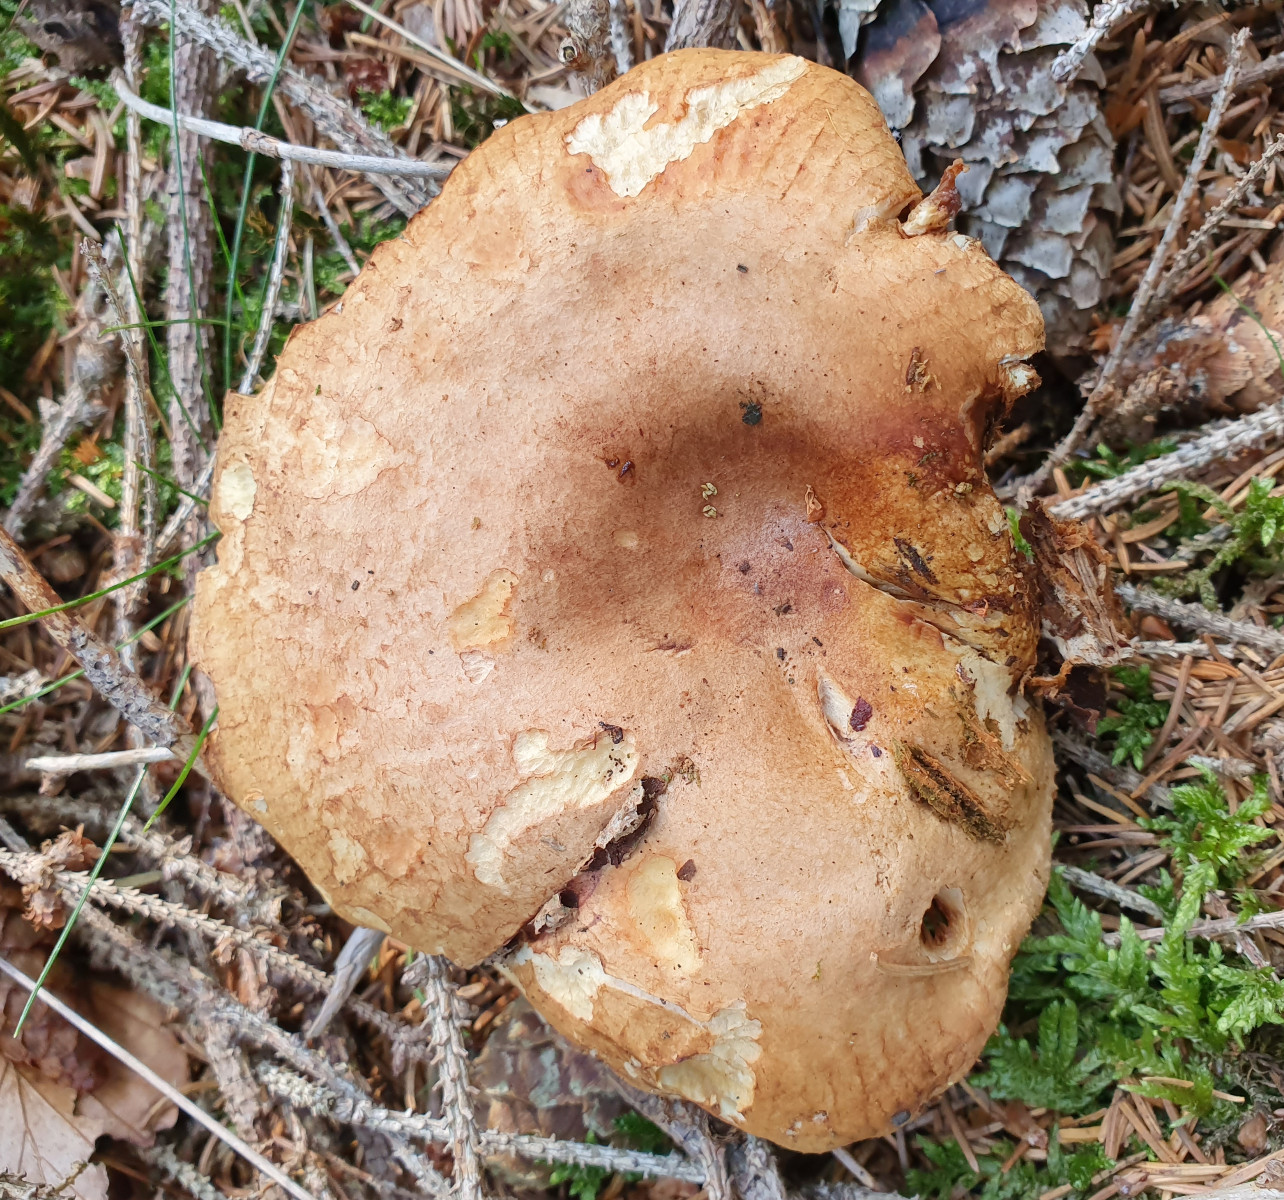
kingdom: Fungi
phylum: Basidiomycota
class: Agaricomycetes
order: Boletales
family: Paxillaceae
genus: Paxillus
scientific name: Paxillus involutus
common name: almindelig netbladhat
